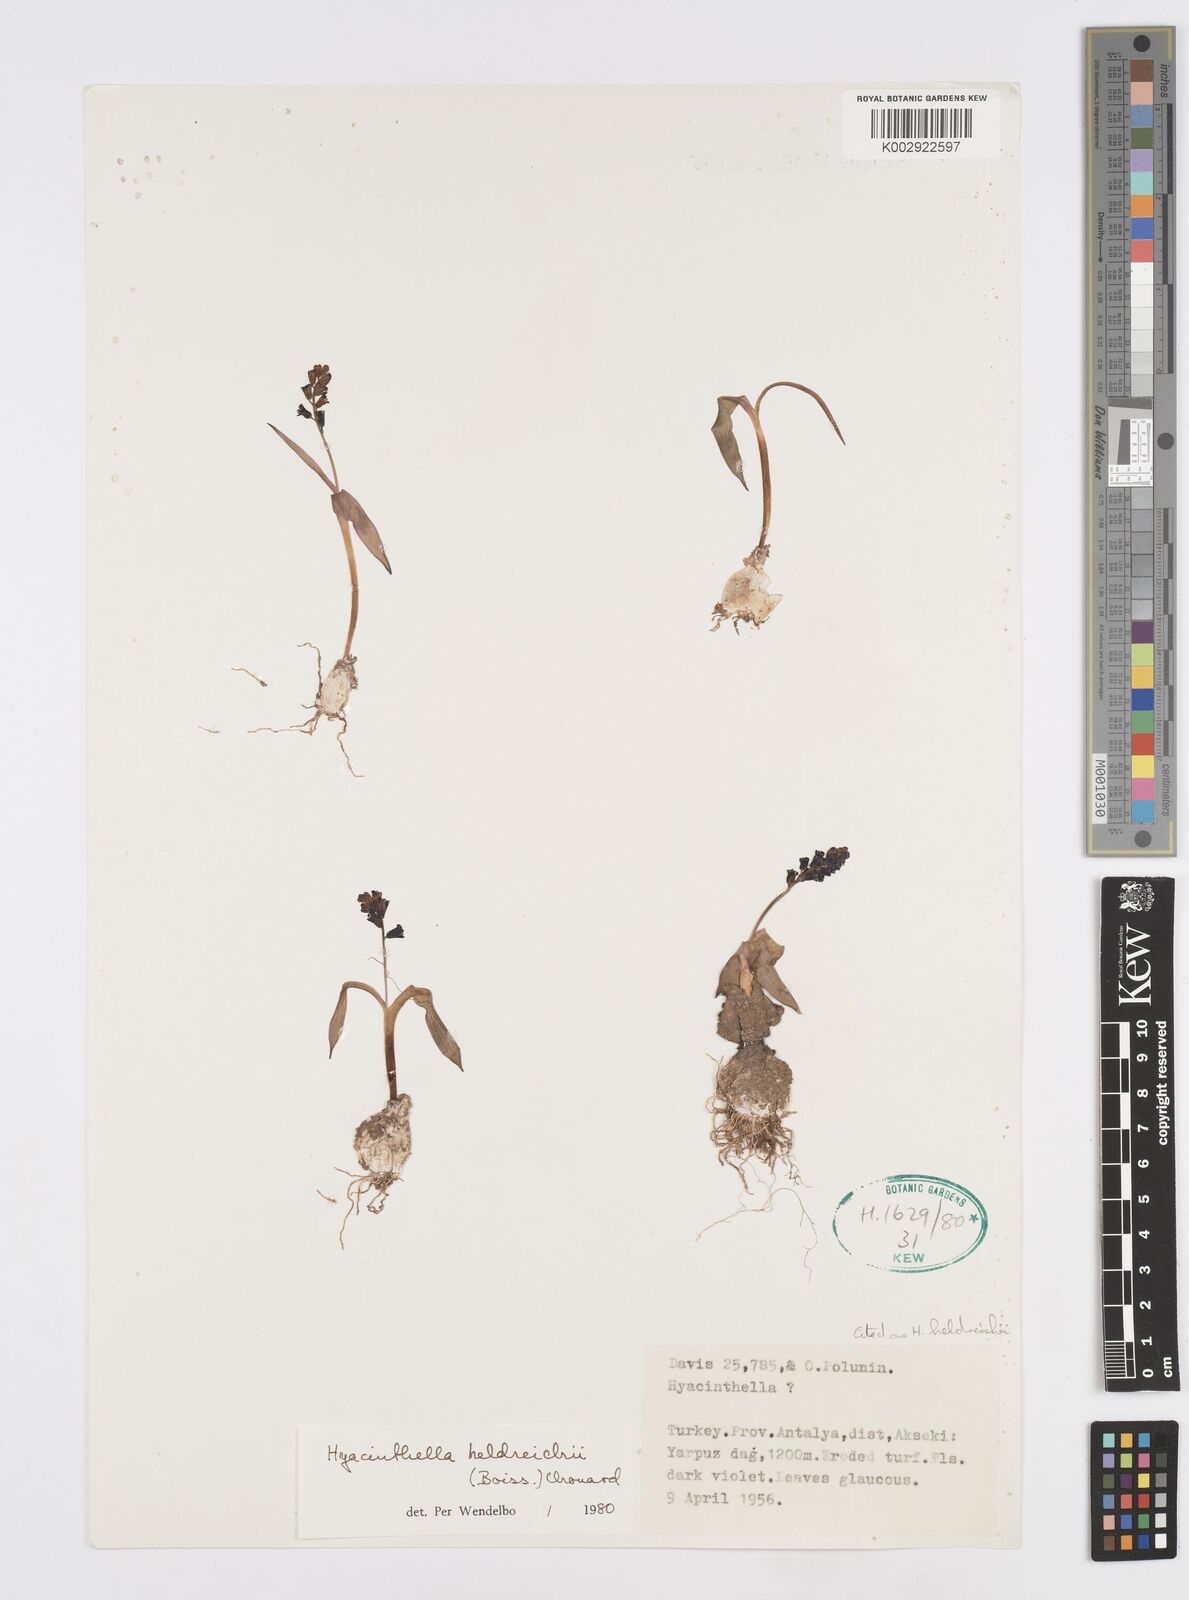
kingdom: Plantae
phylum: Tracheophyta
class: Liliopsida
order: Asparagales
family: Asparagaceae
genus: Hyacinthella
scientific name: Hyacinthella heldreichii
